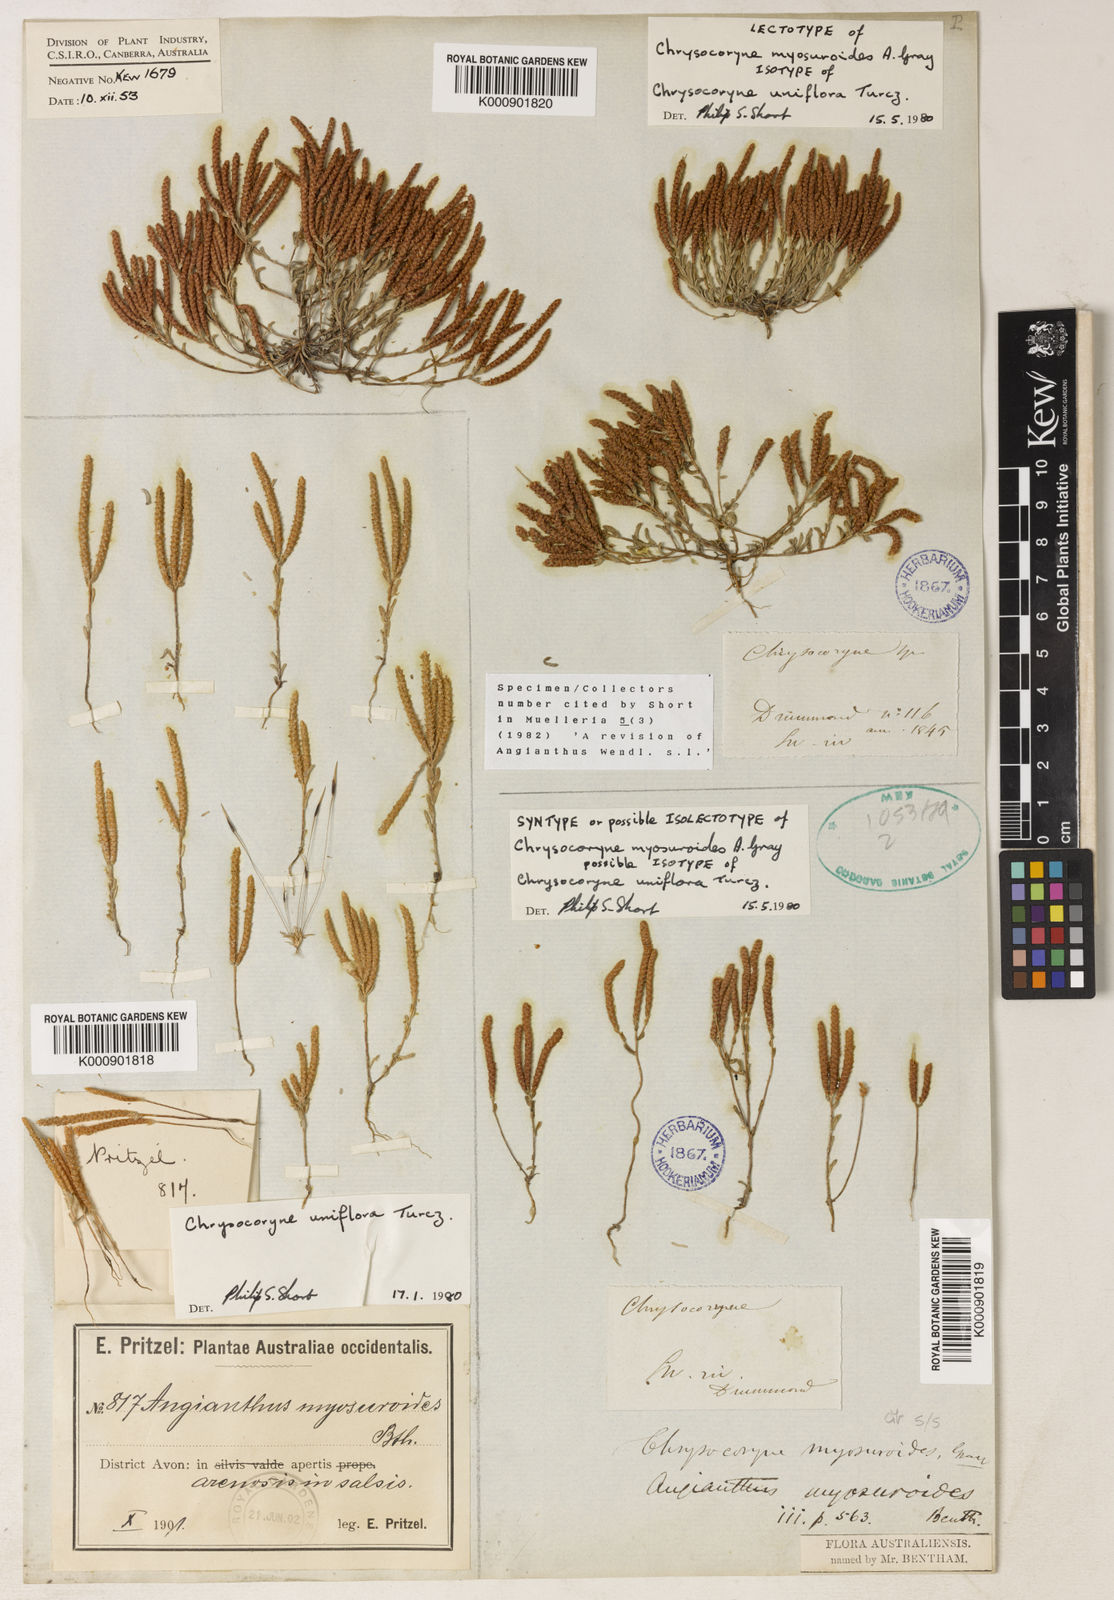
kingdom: Plantae
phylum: Tracheophyta
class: Magnoliopsida
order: Asterales
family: Asteraceae
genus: Gnephosis
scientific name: Gnephosis uniflora
